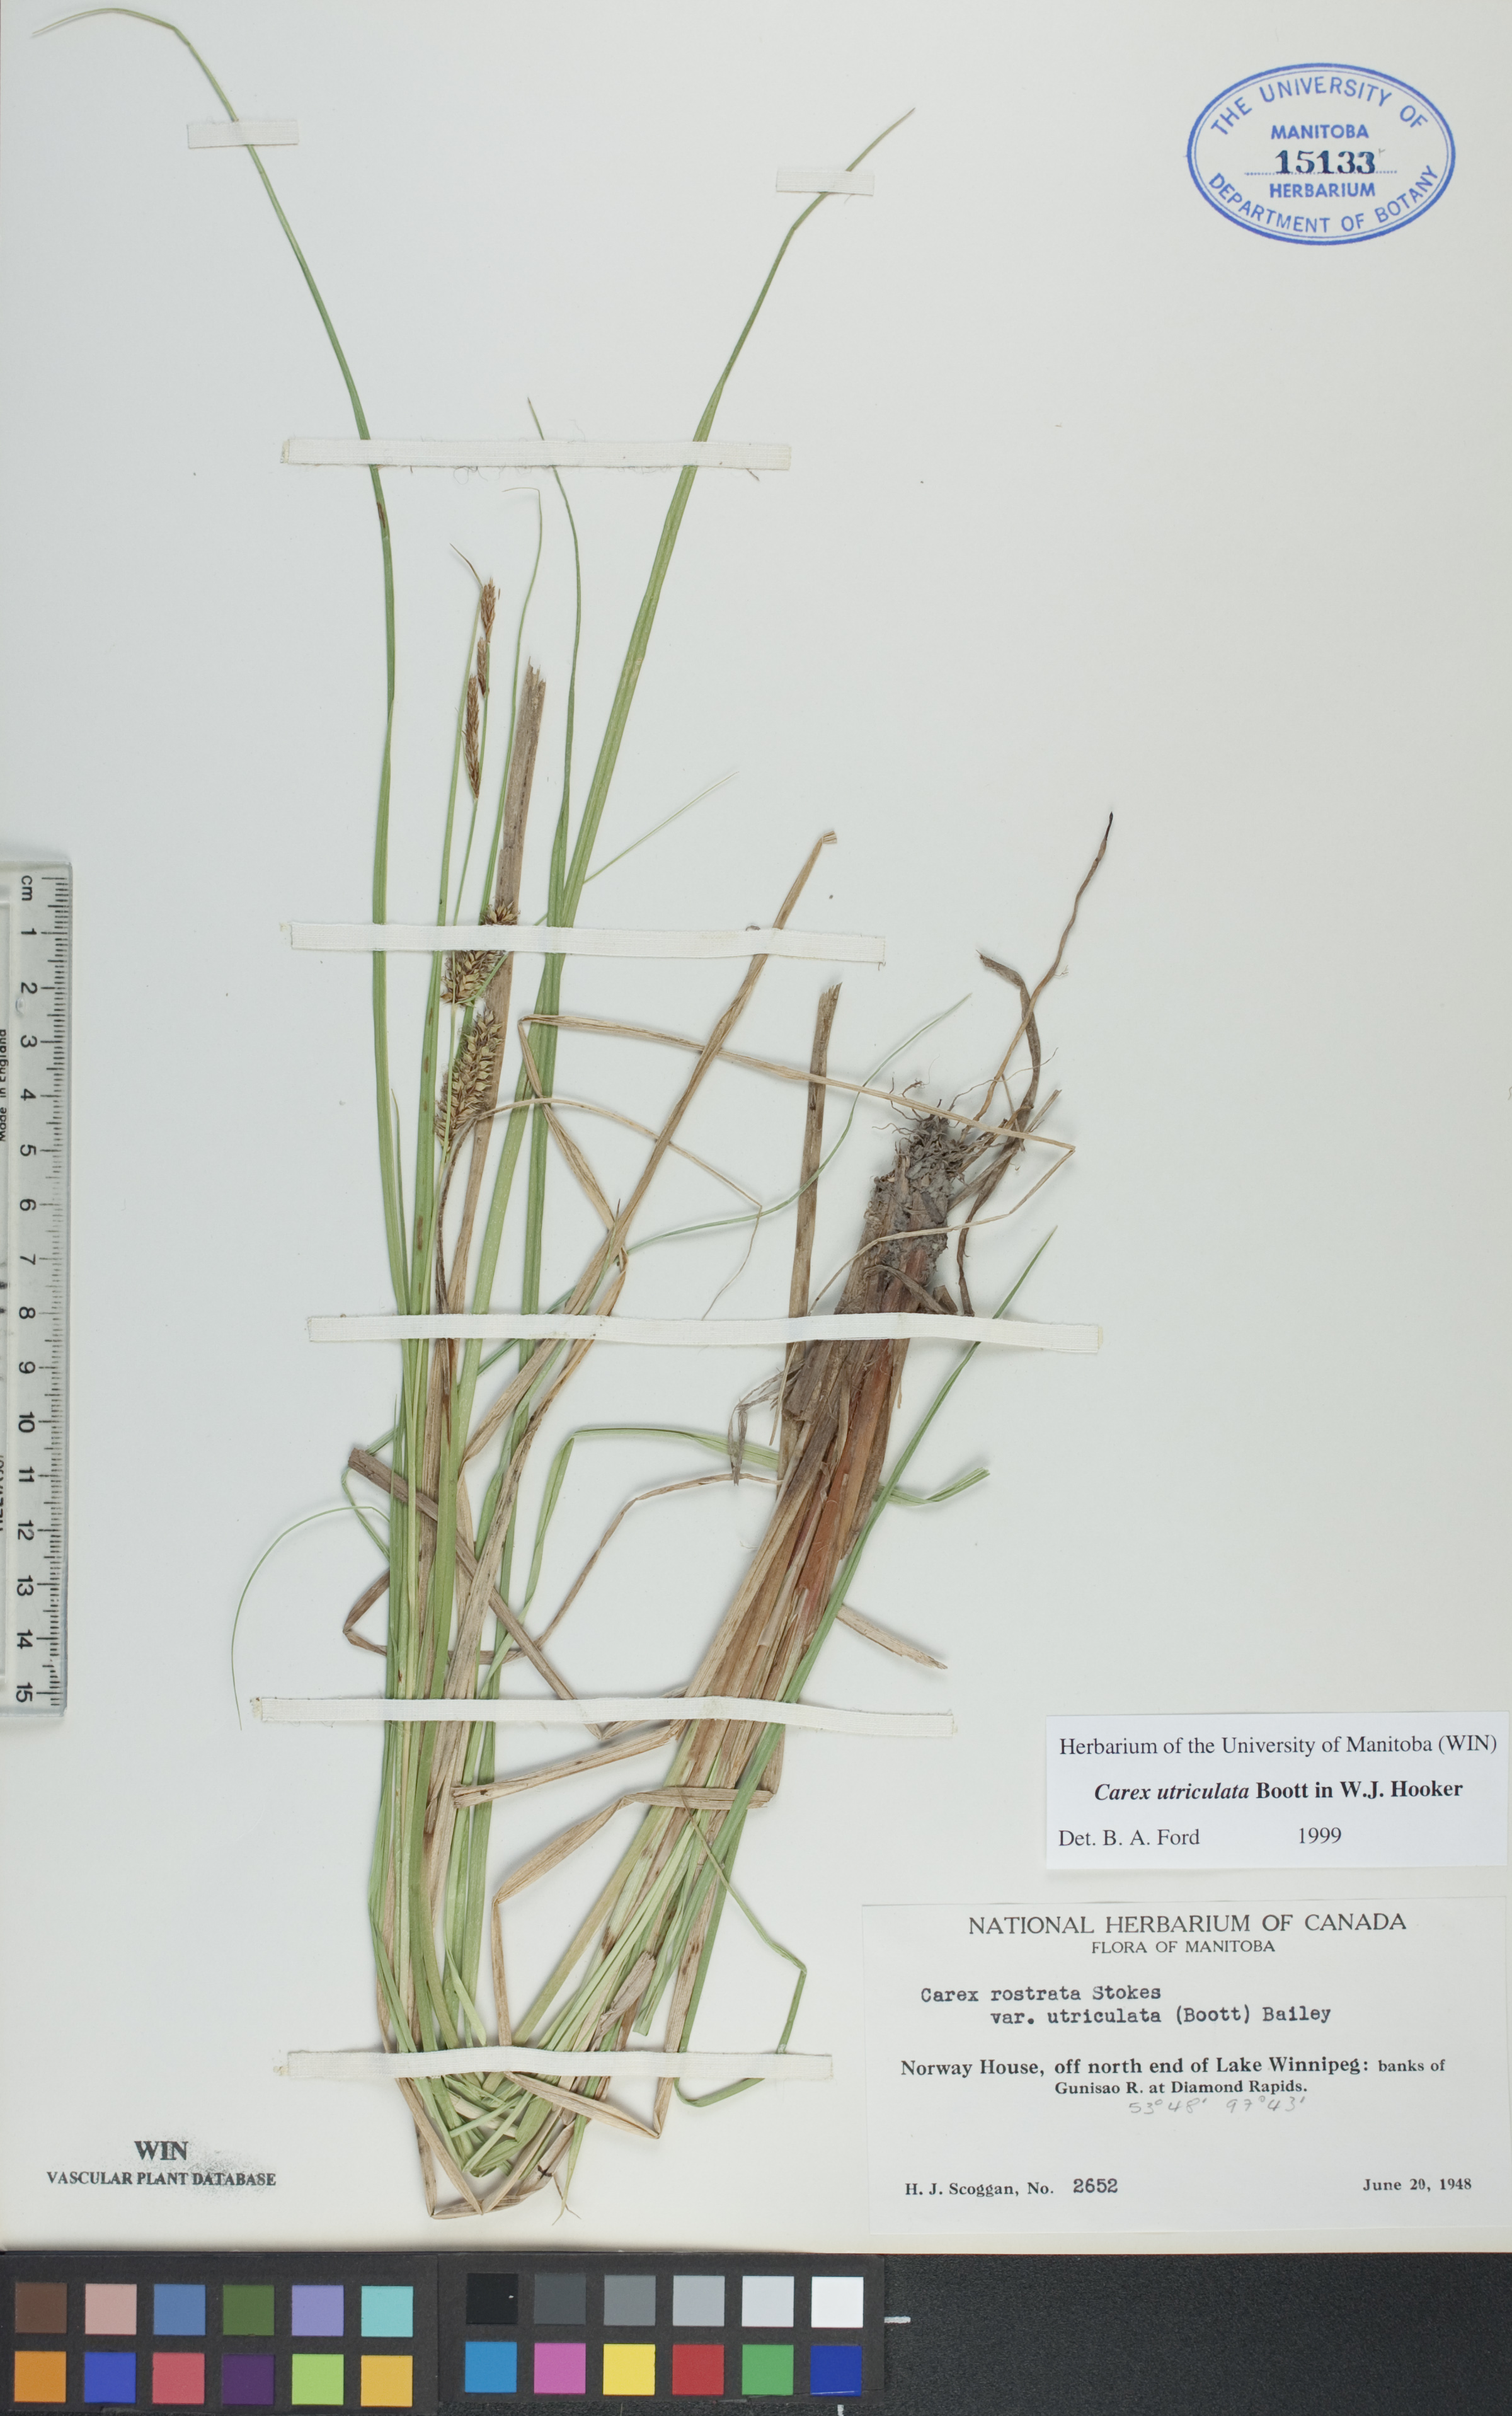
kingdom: Plantae
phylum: Tracheophyta
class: Liliopsida
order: Poales
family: Cyperaceae
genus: Carex
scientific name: Carex utriculata
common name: Beaked sedge
